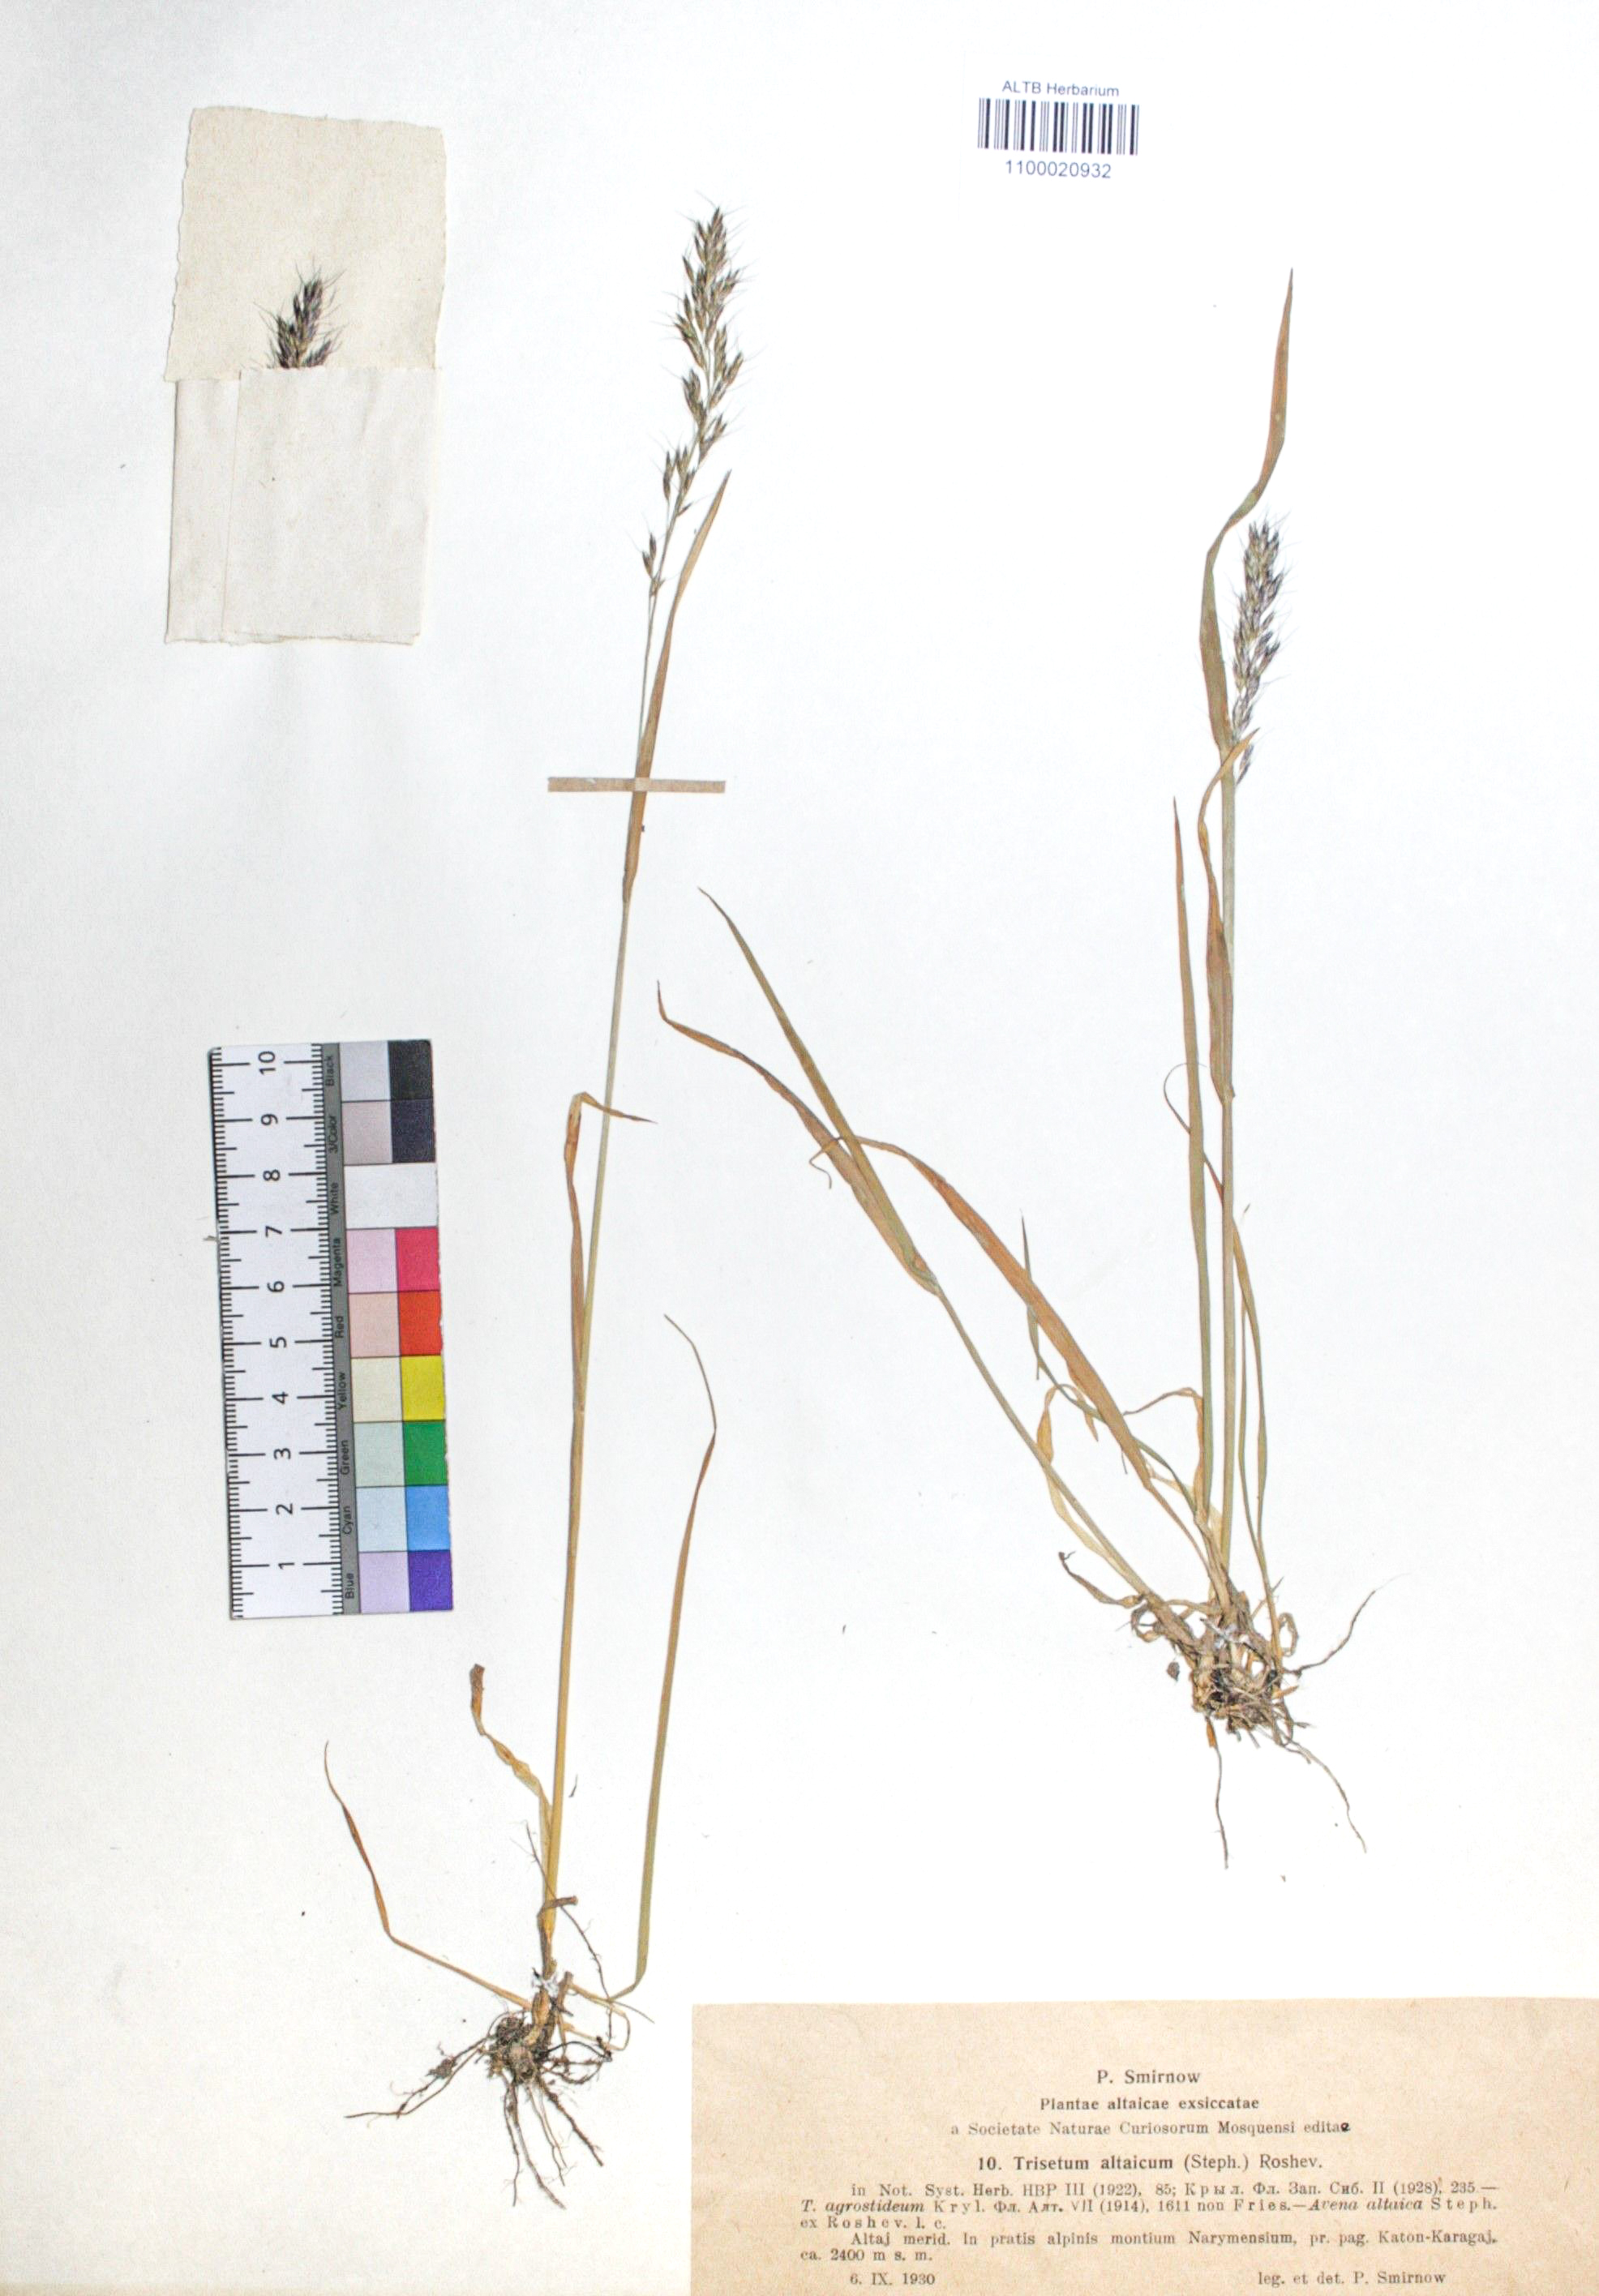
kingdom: Plantae
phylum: Tracheophyta
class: Liliopsida
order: Poales
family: Poaceae
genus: Trisetum
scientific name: Trisetum altaicum
